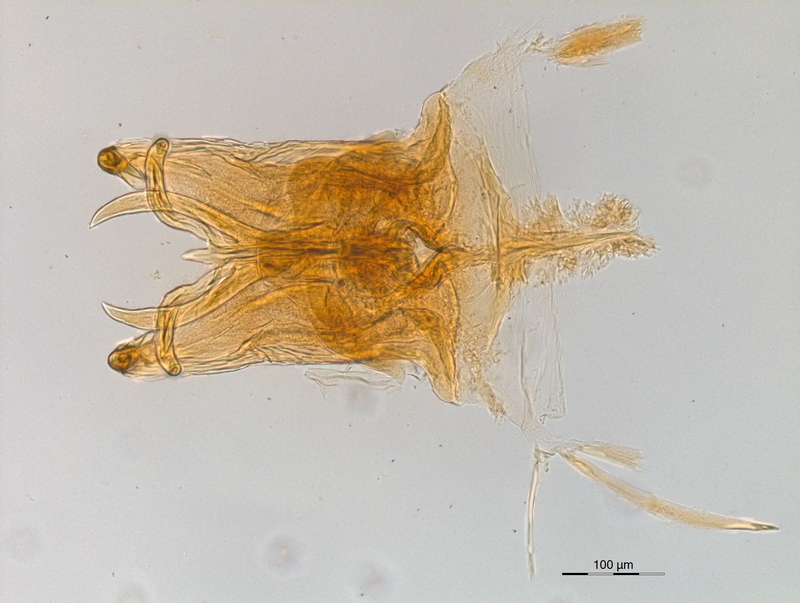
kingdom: Animalia
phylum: Arthropoda
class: Diplopoda
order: Chordeumatida
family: Craspedosomatidae
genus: Atractosoma
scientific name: Atractosoma meridionale
